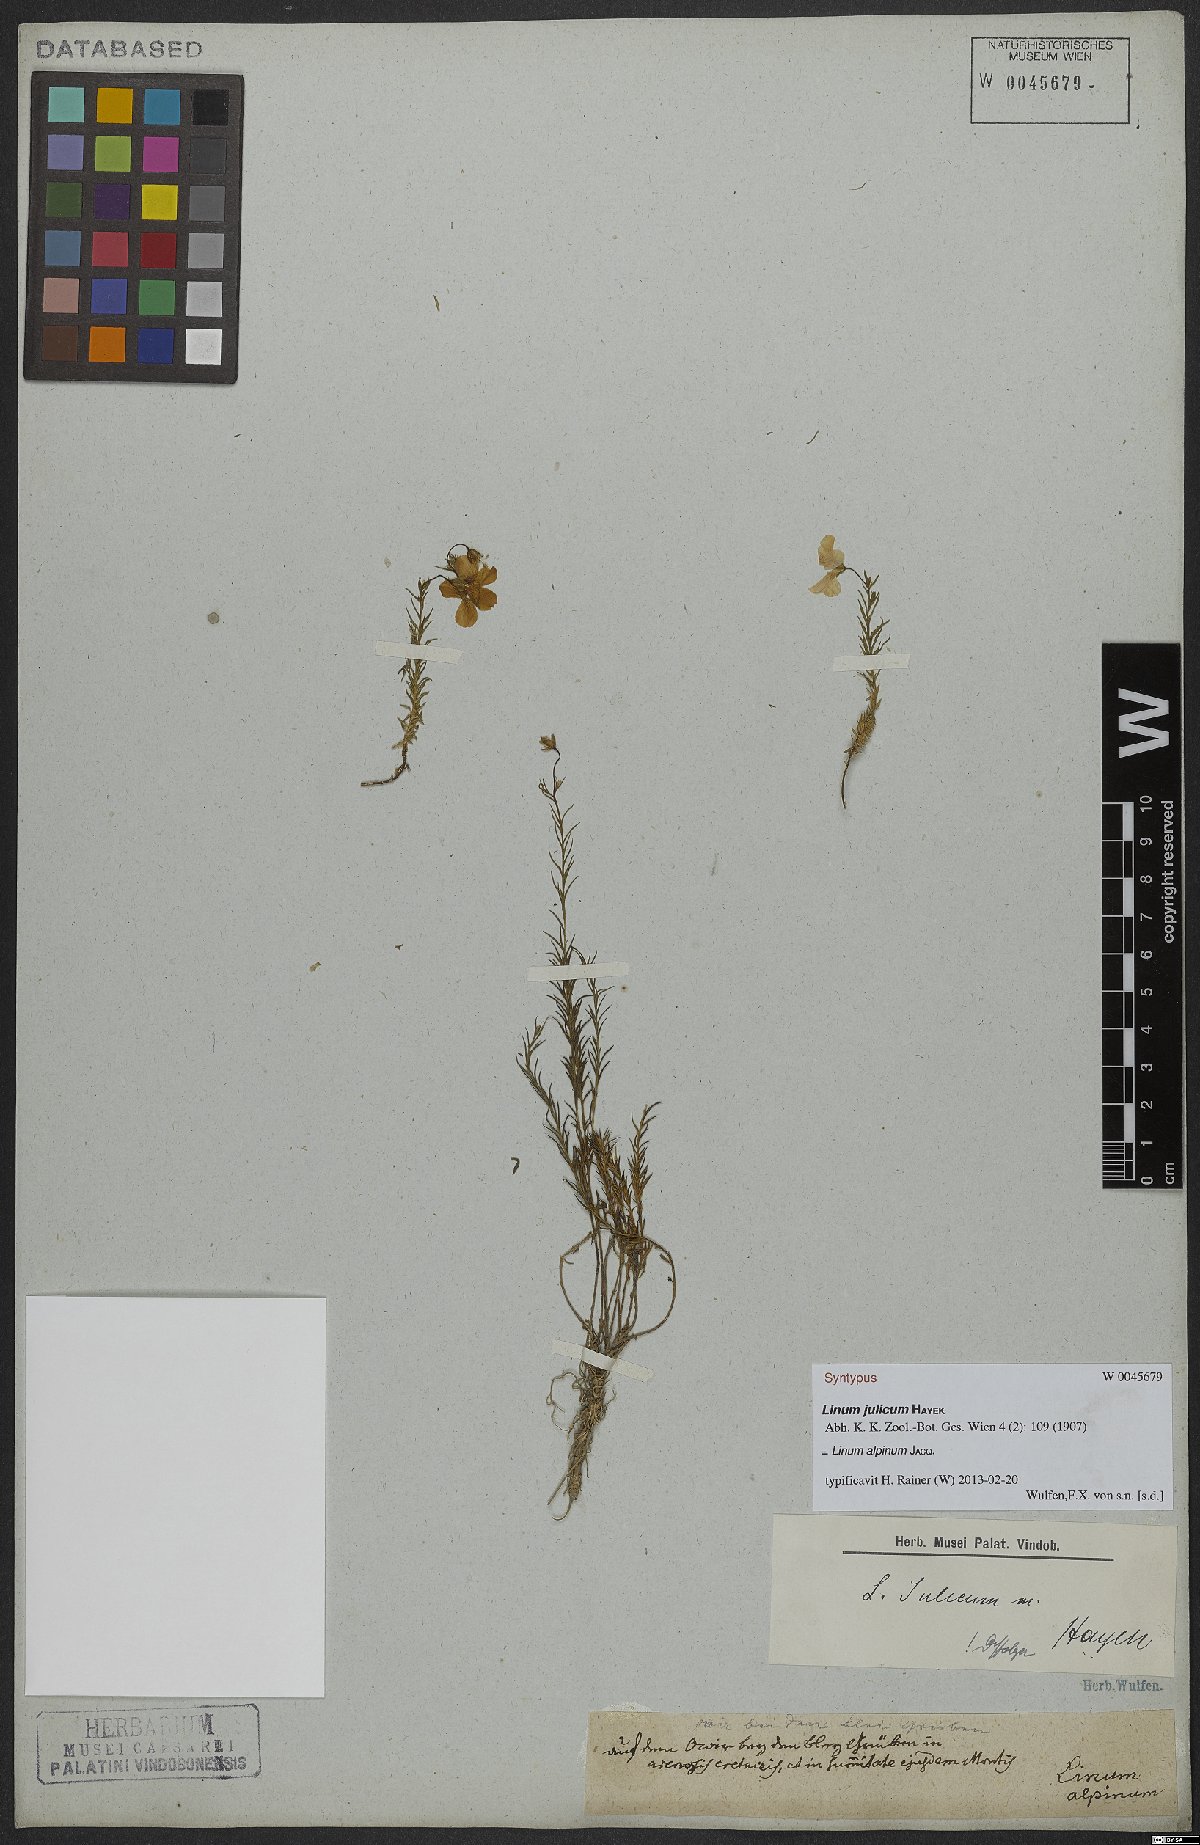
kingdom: Plantae
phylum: Tracheophyta
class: Magnoliopsida
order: Malpighiales
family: Linaceae
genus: Linum
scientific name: Linum alpinum
